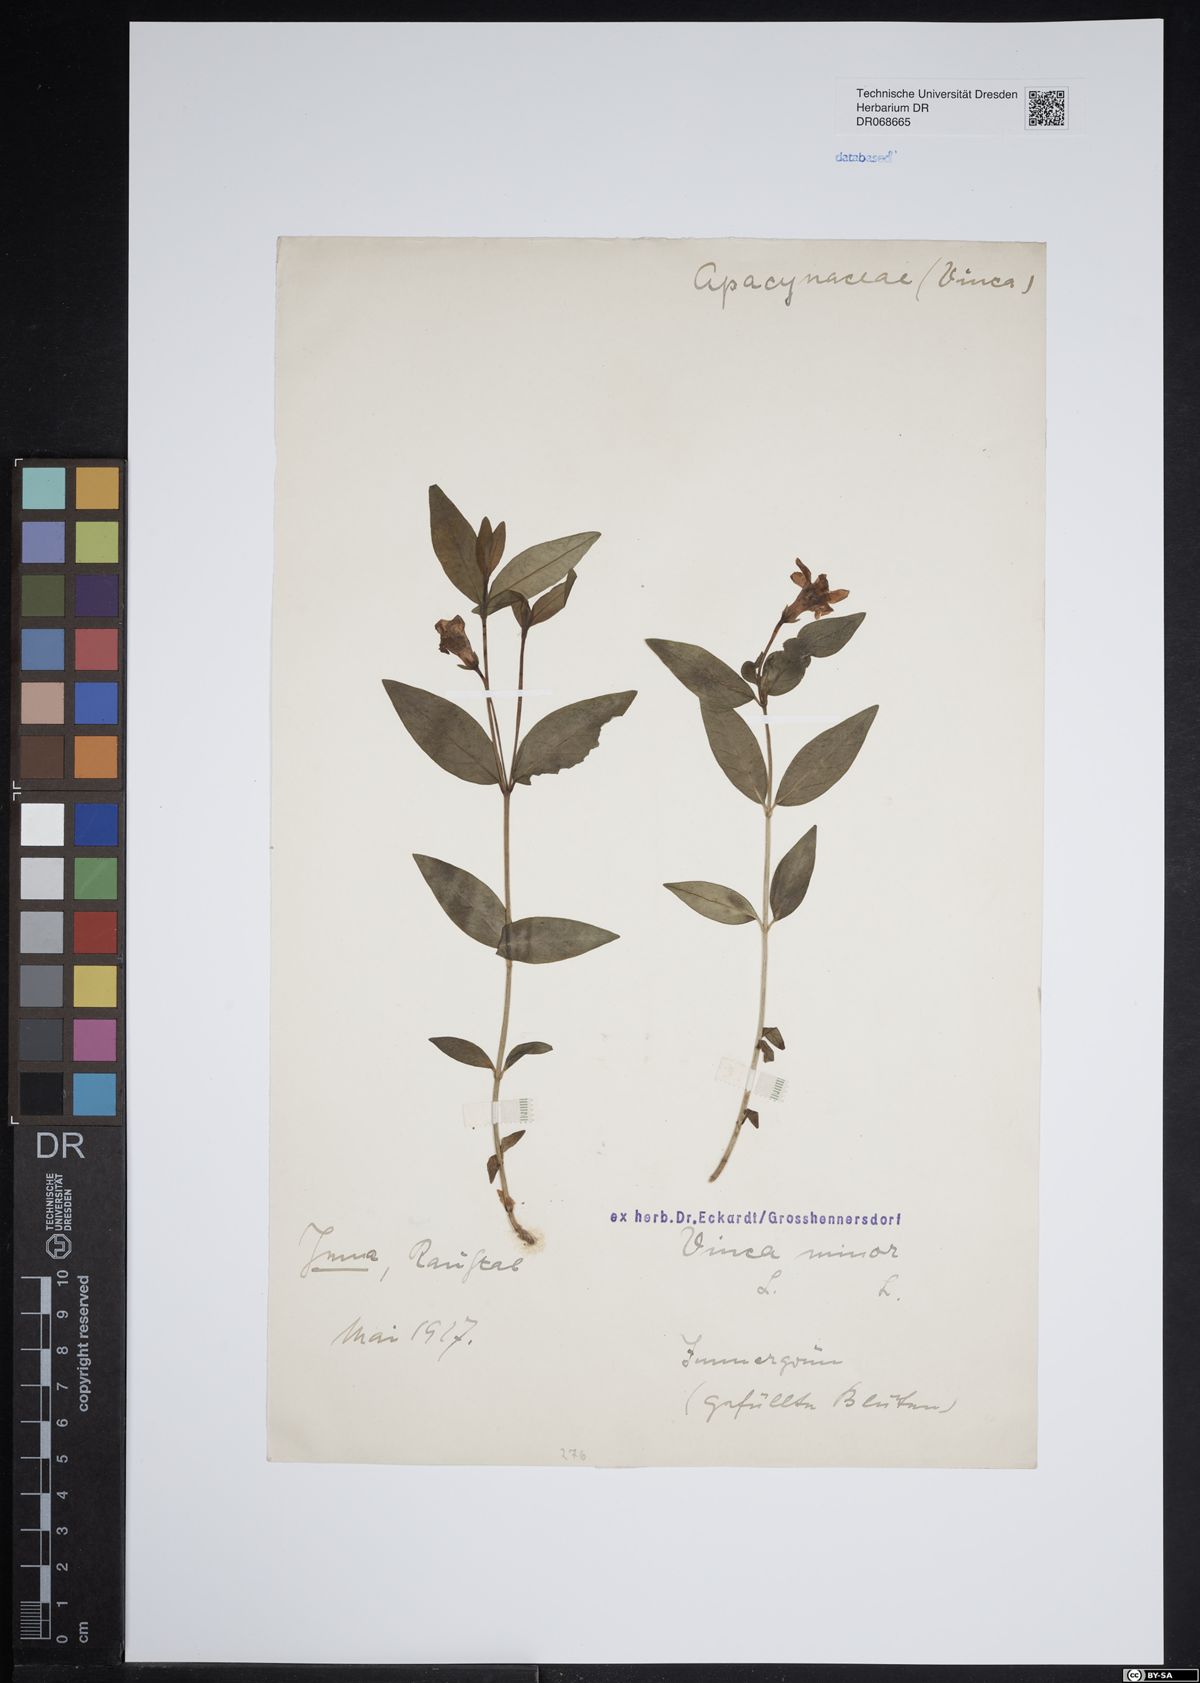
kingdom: Plantae
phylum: Tracheophyta
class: Magnoliopsida
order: Gentianales
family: Apocynaceae
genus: Vinca
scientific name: Vinca minor
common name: Lesser periwinkle
